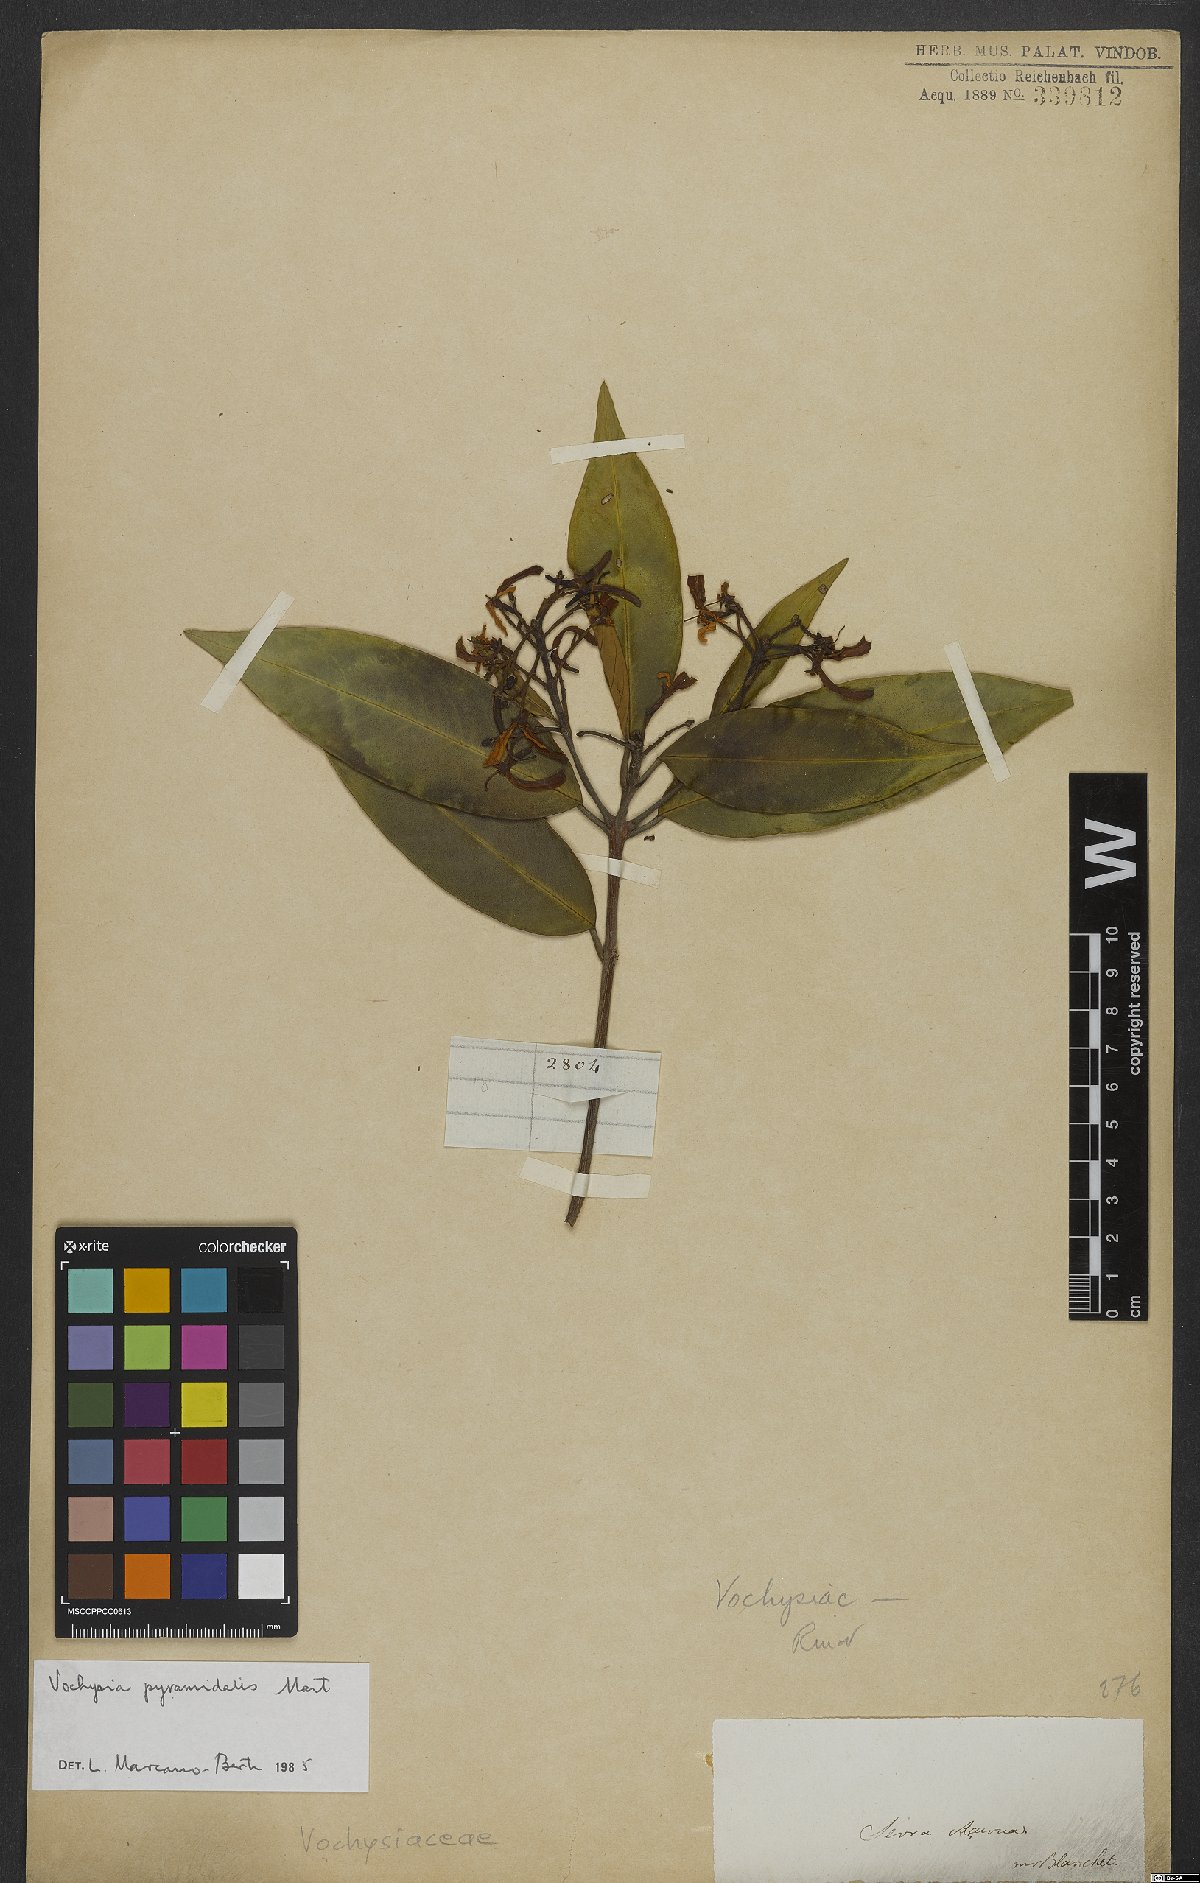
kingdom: Plantae
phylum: Tracheophyta
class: Magnoliopsida
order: Myrtales
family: Vochysiaceae
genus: Vochysia
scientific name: Vochysia pyramidalis
